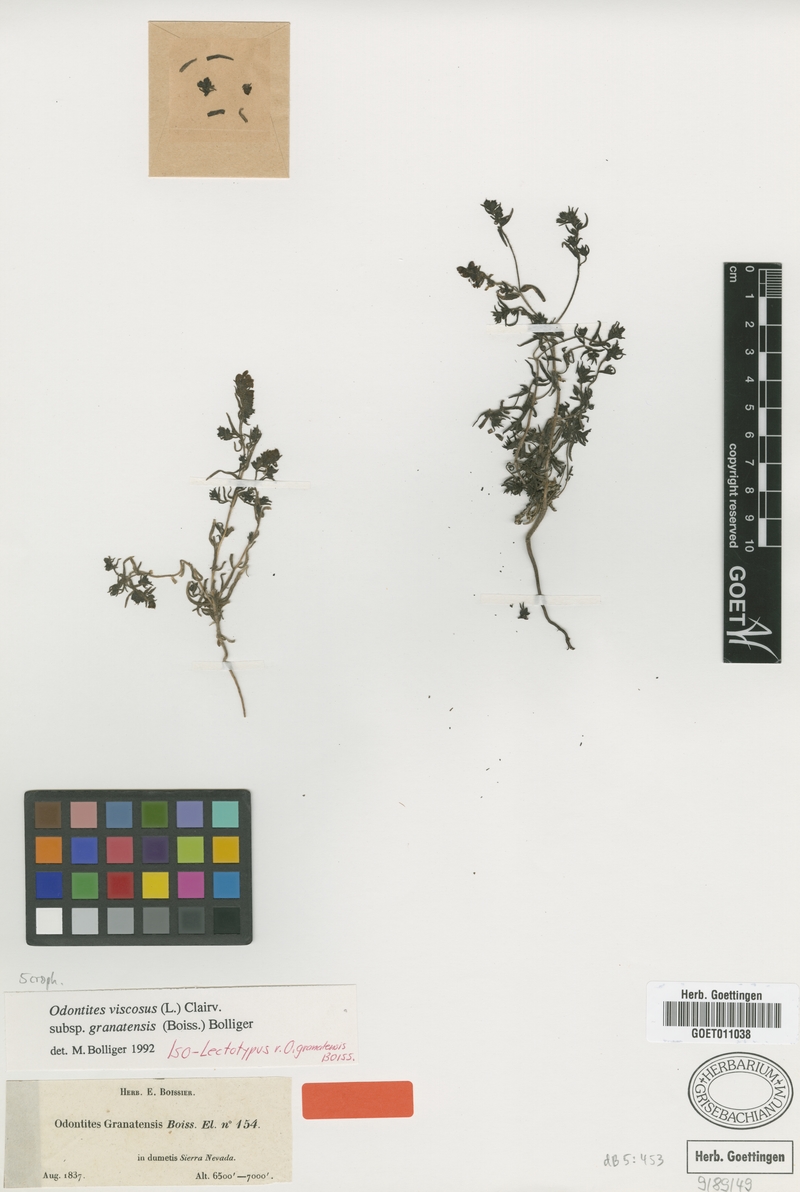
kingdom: Plantae
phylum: Tracheophyta
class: Magnoliopsida
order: Lamiales
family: Orobanchaceae
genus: Odontites
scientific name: Odontites viscosus
